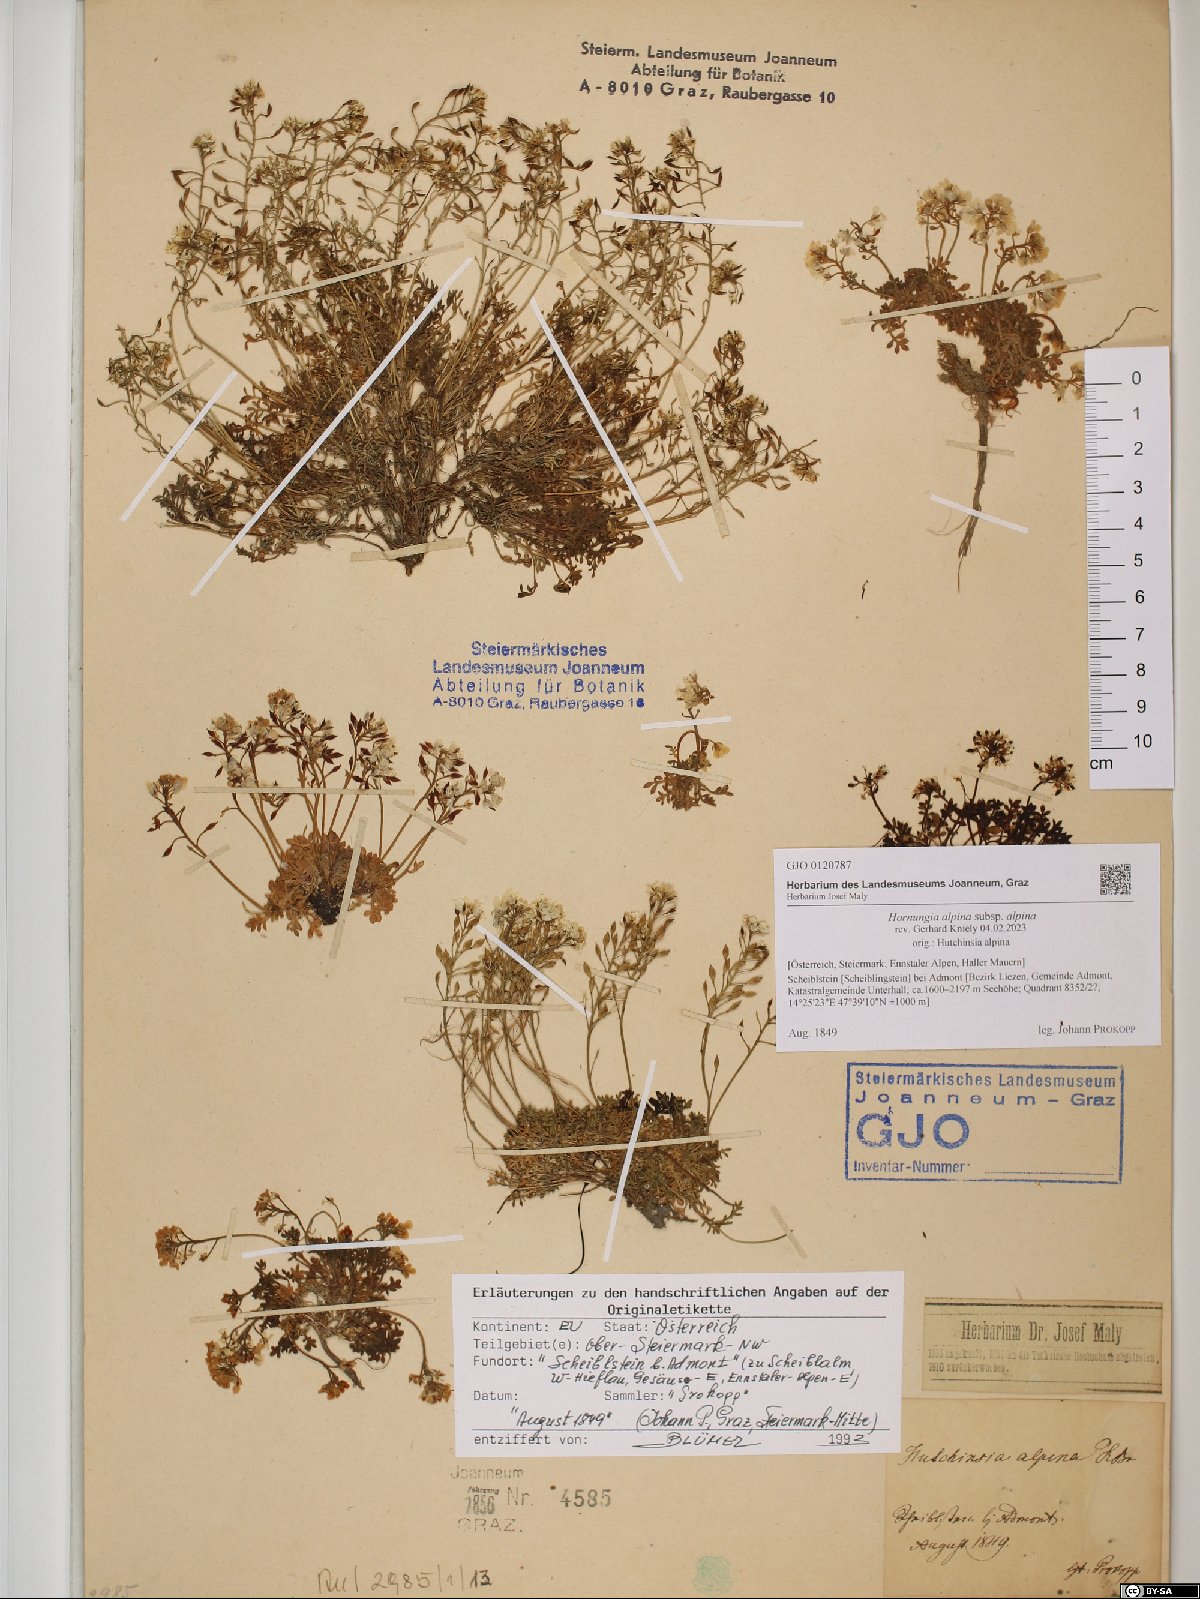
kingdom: Plantae
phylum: Tracheophyta
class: Magnoliopsida
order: Brassicales
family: Brassicaceae
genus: Hornungia
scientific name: Hornungia alpina
